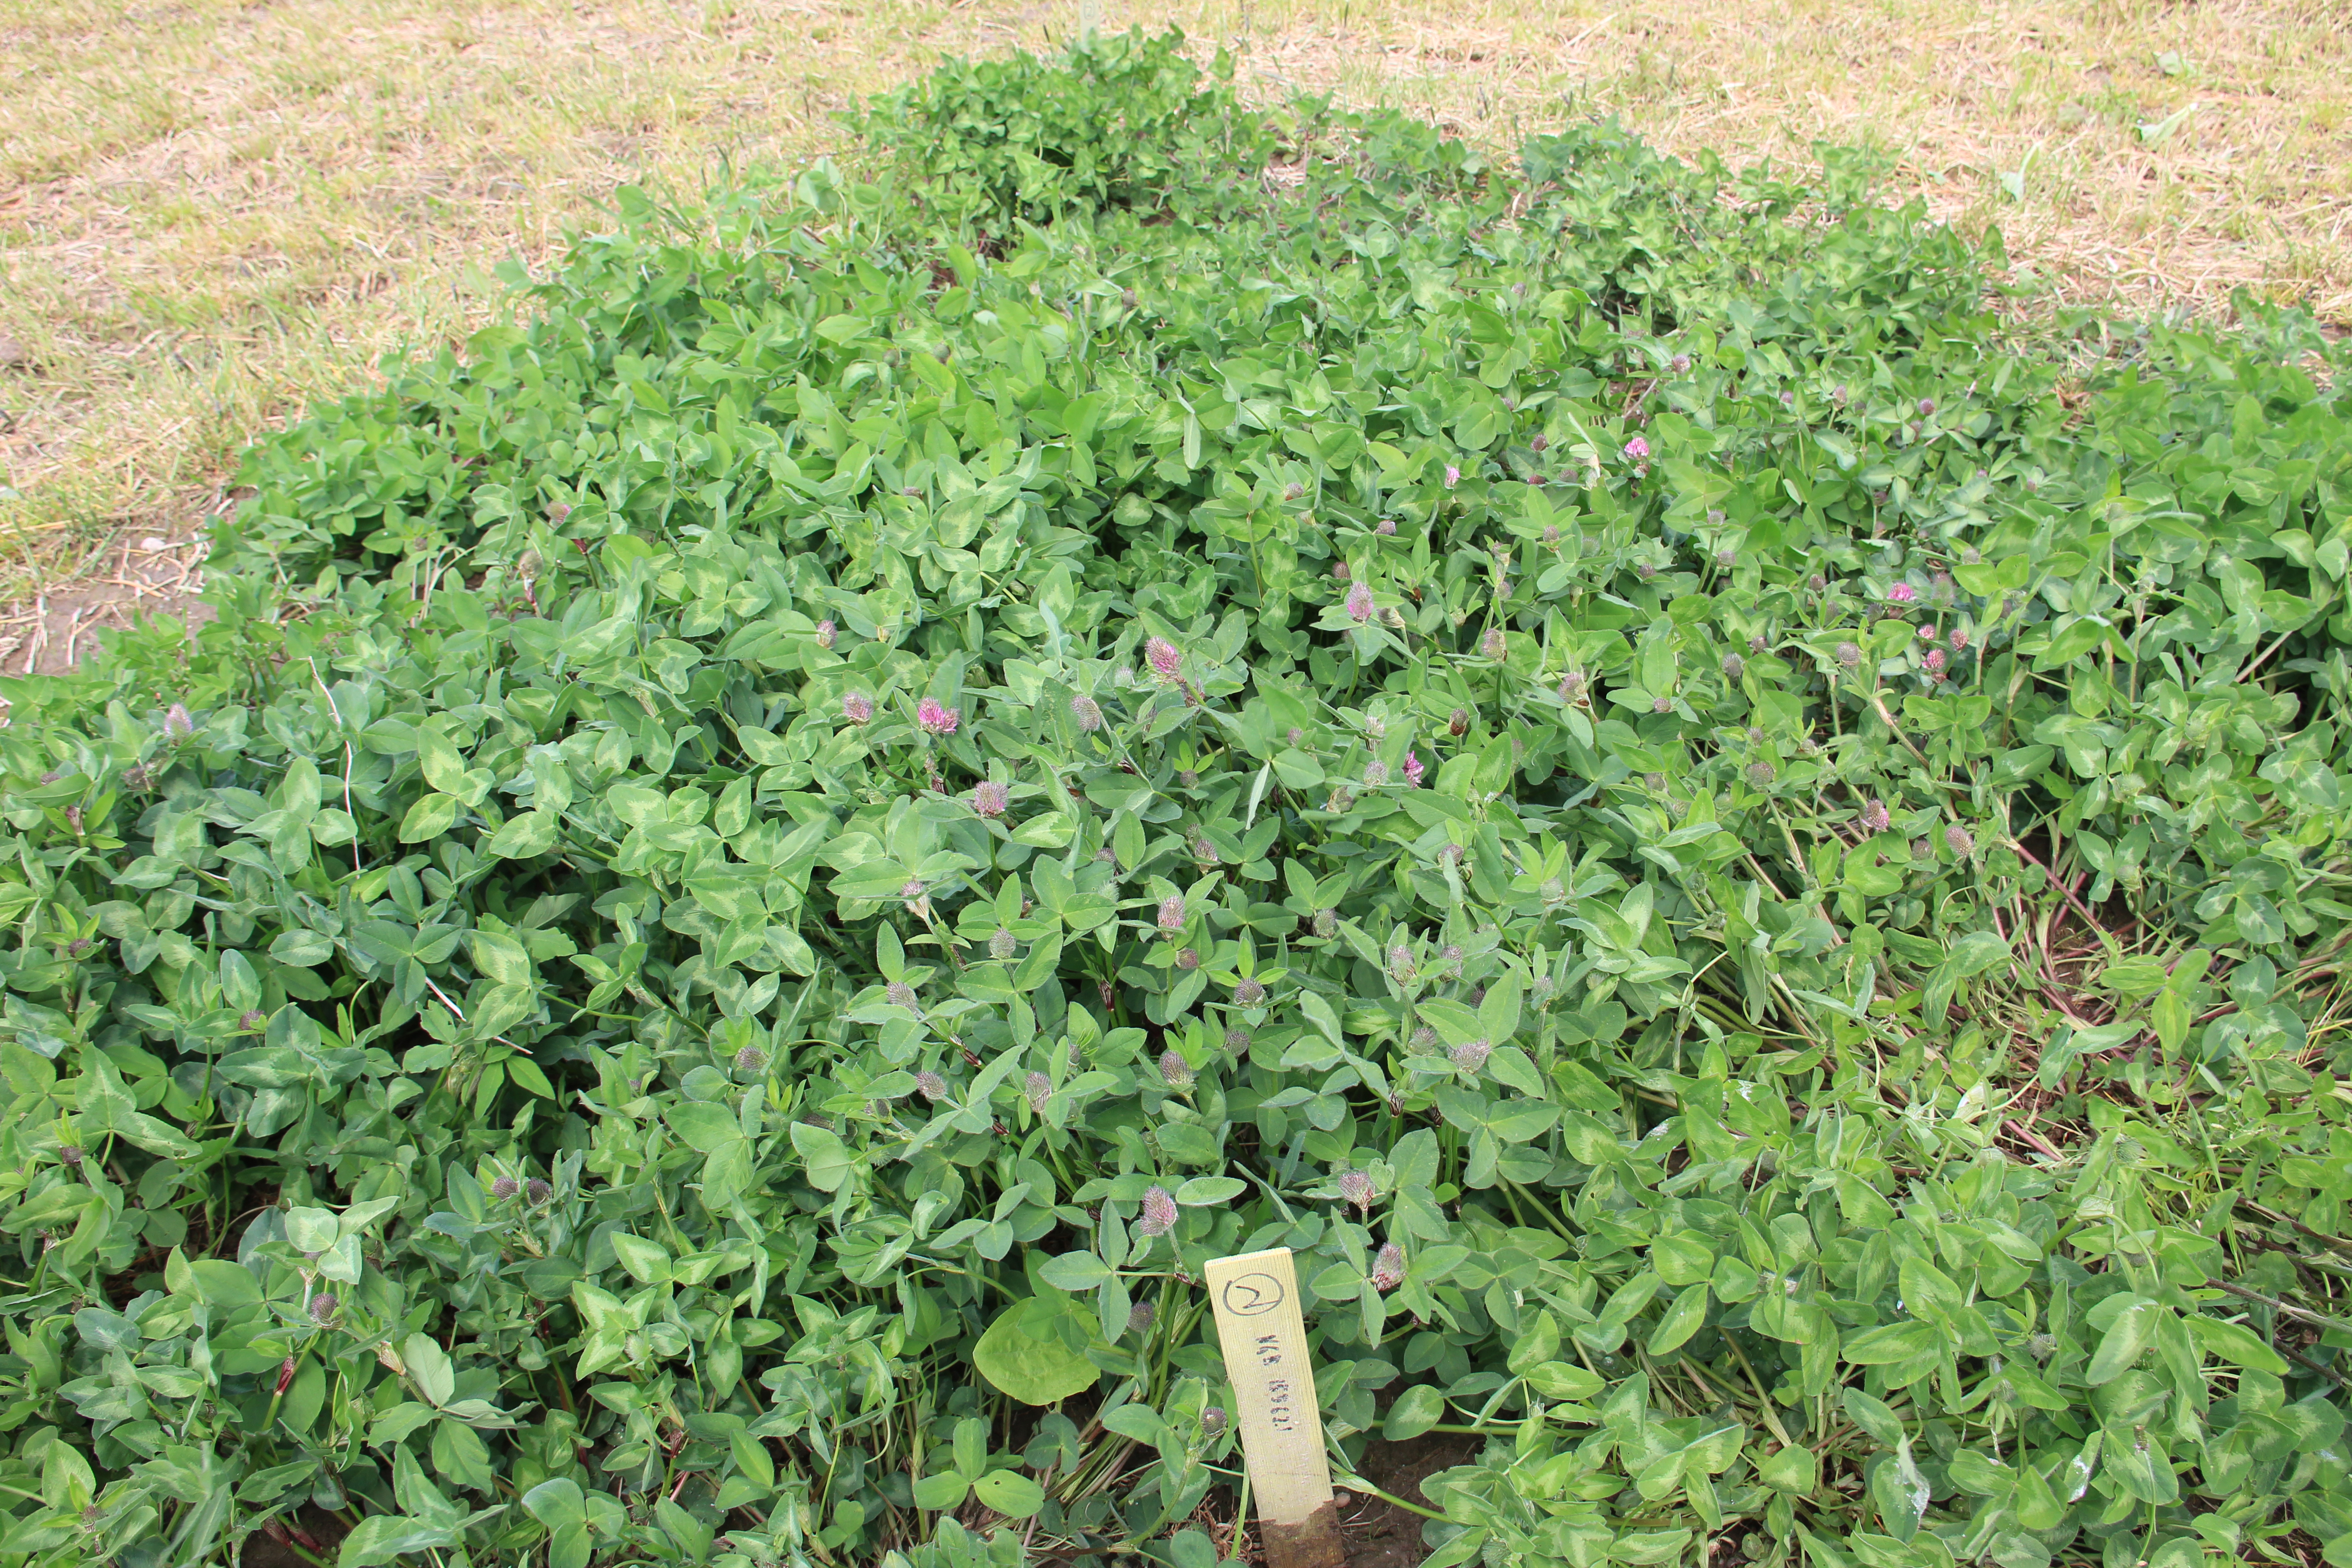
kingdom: Plantae
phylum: Tracheophyta
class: Magnoliopsida
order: Fabales
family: Fabaceae
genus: Trifolium
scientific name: Trifolium pratense
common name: Red clover
